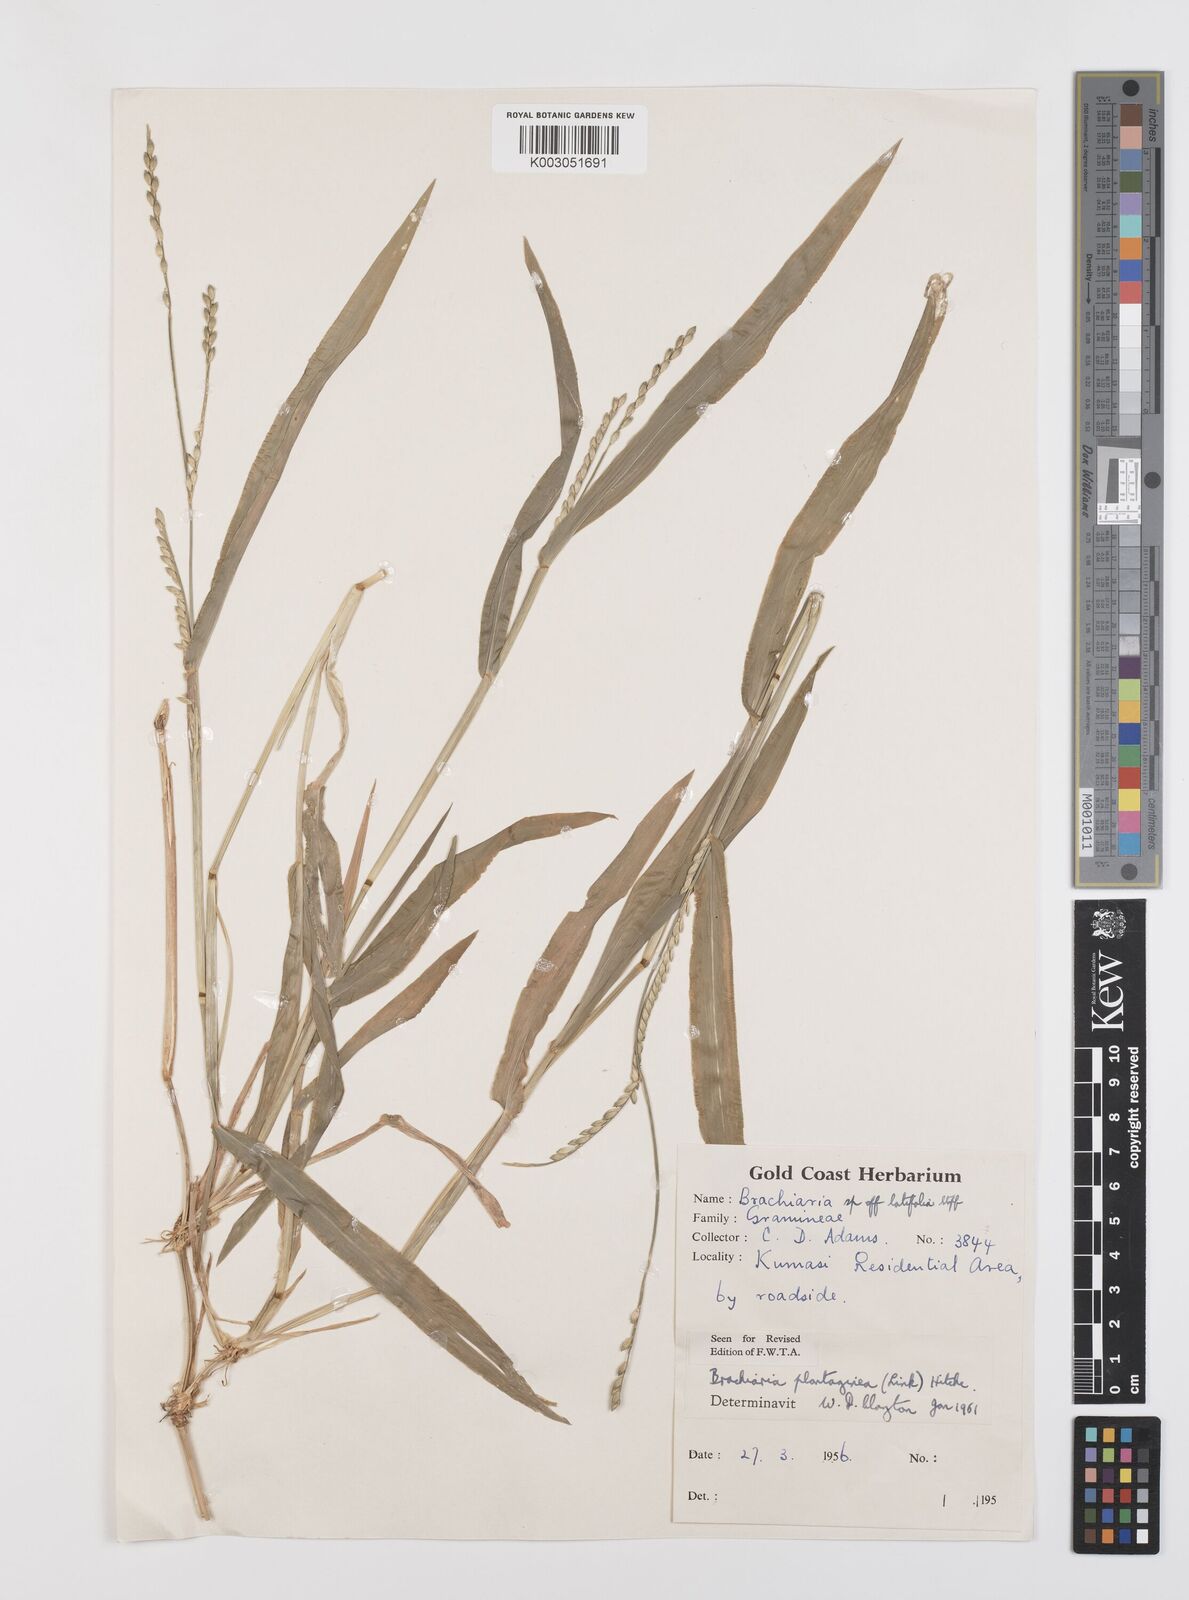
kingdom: Plantae
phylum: Tracheophyta
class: Liliopsida
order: Poales
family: Poaceae
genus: Urochloa
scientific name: Urochloa plantaginea
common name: Plantain signalgrass
